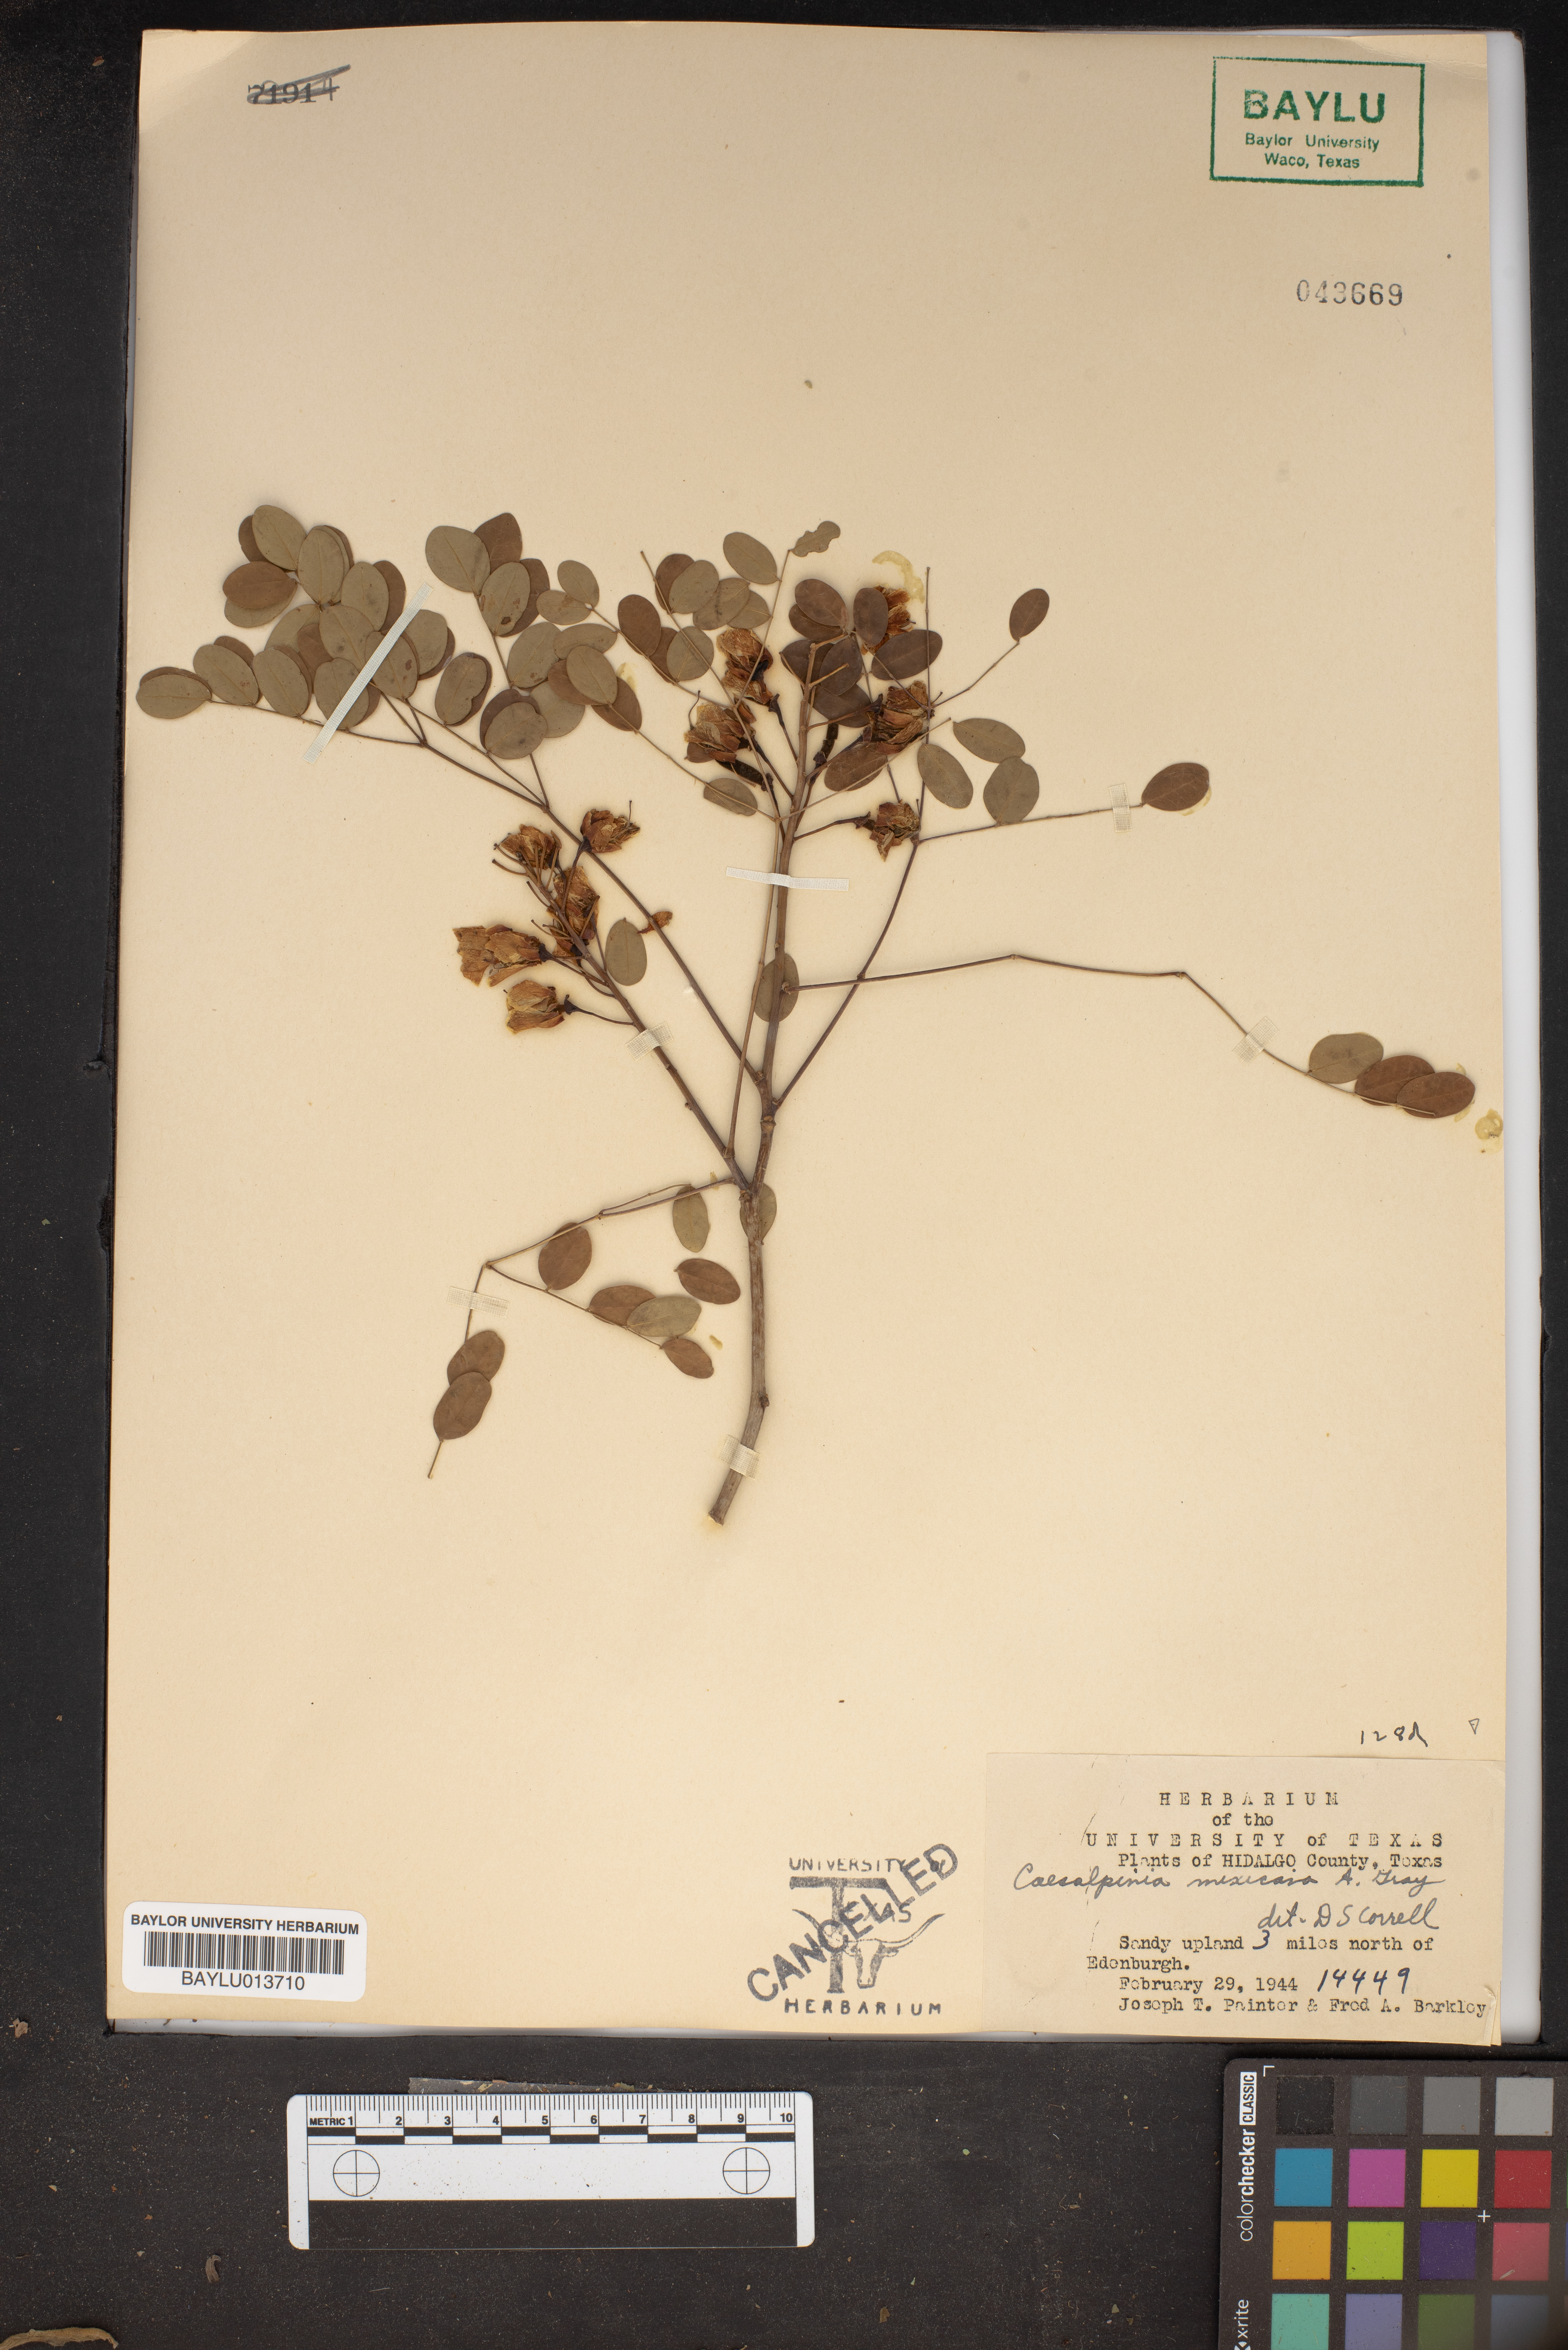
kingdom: Plantae
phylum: Tracheophyta
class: Magnoliopsida
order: Fabales
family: Fabaceae
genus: Erythrostemon
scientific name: Erythrostemon mexicanus
